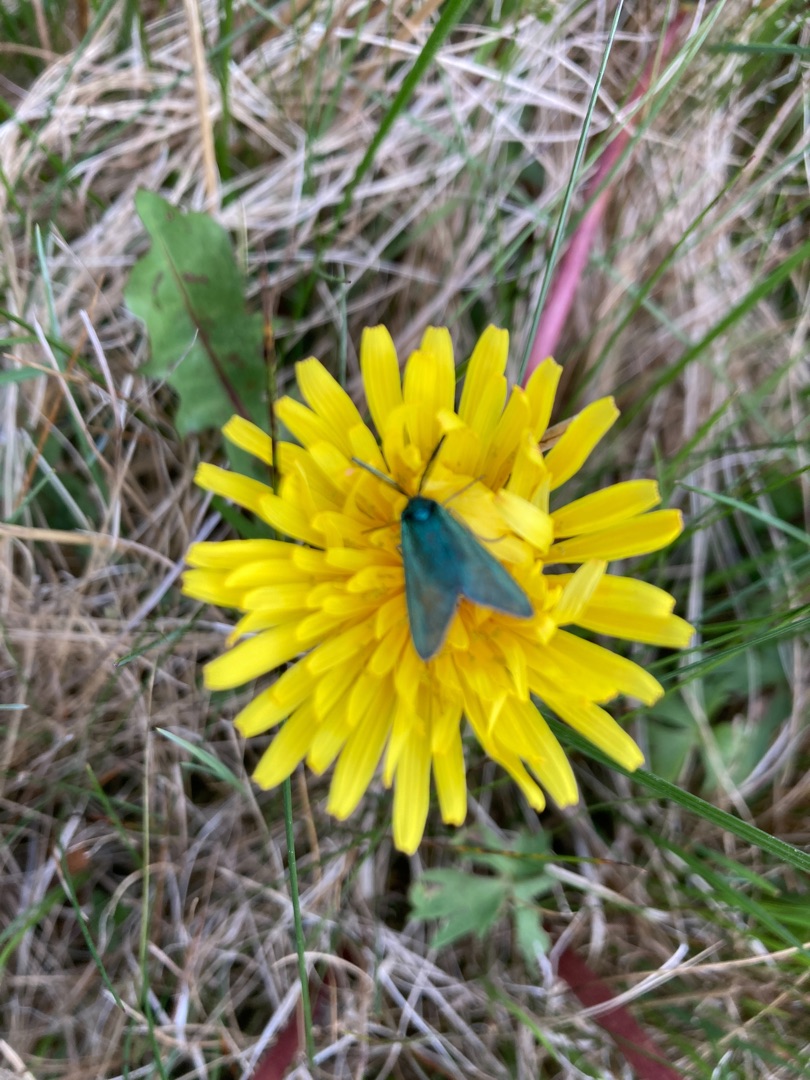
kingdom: Animalia
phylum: Arthropoda
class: Insecta
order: Lepidoptera
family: Zygaenidae
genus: Adscita
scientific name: Adscita statices
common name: Metalvinge
